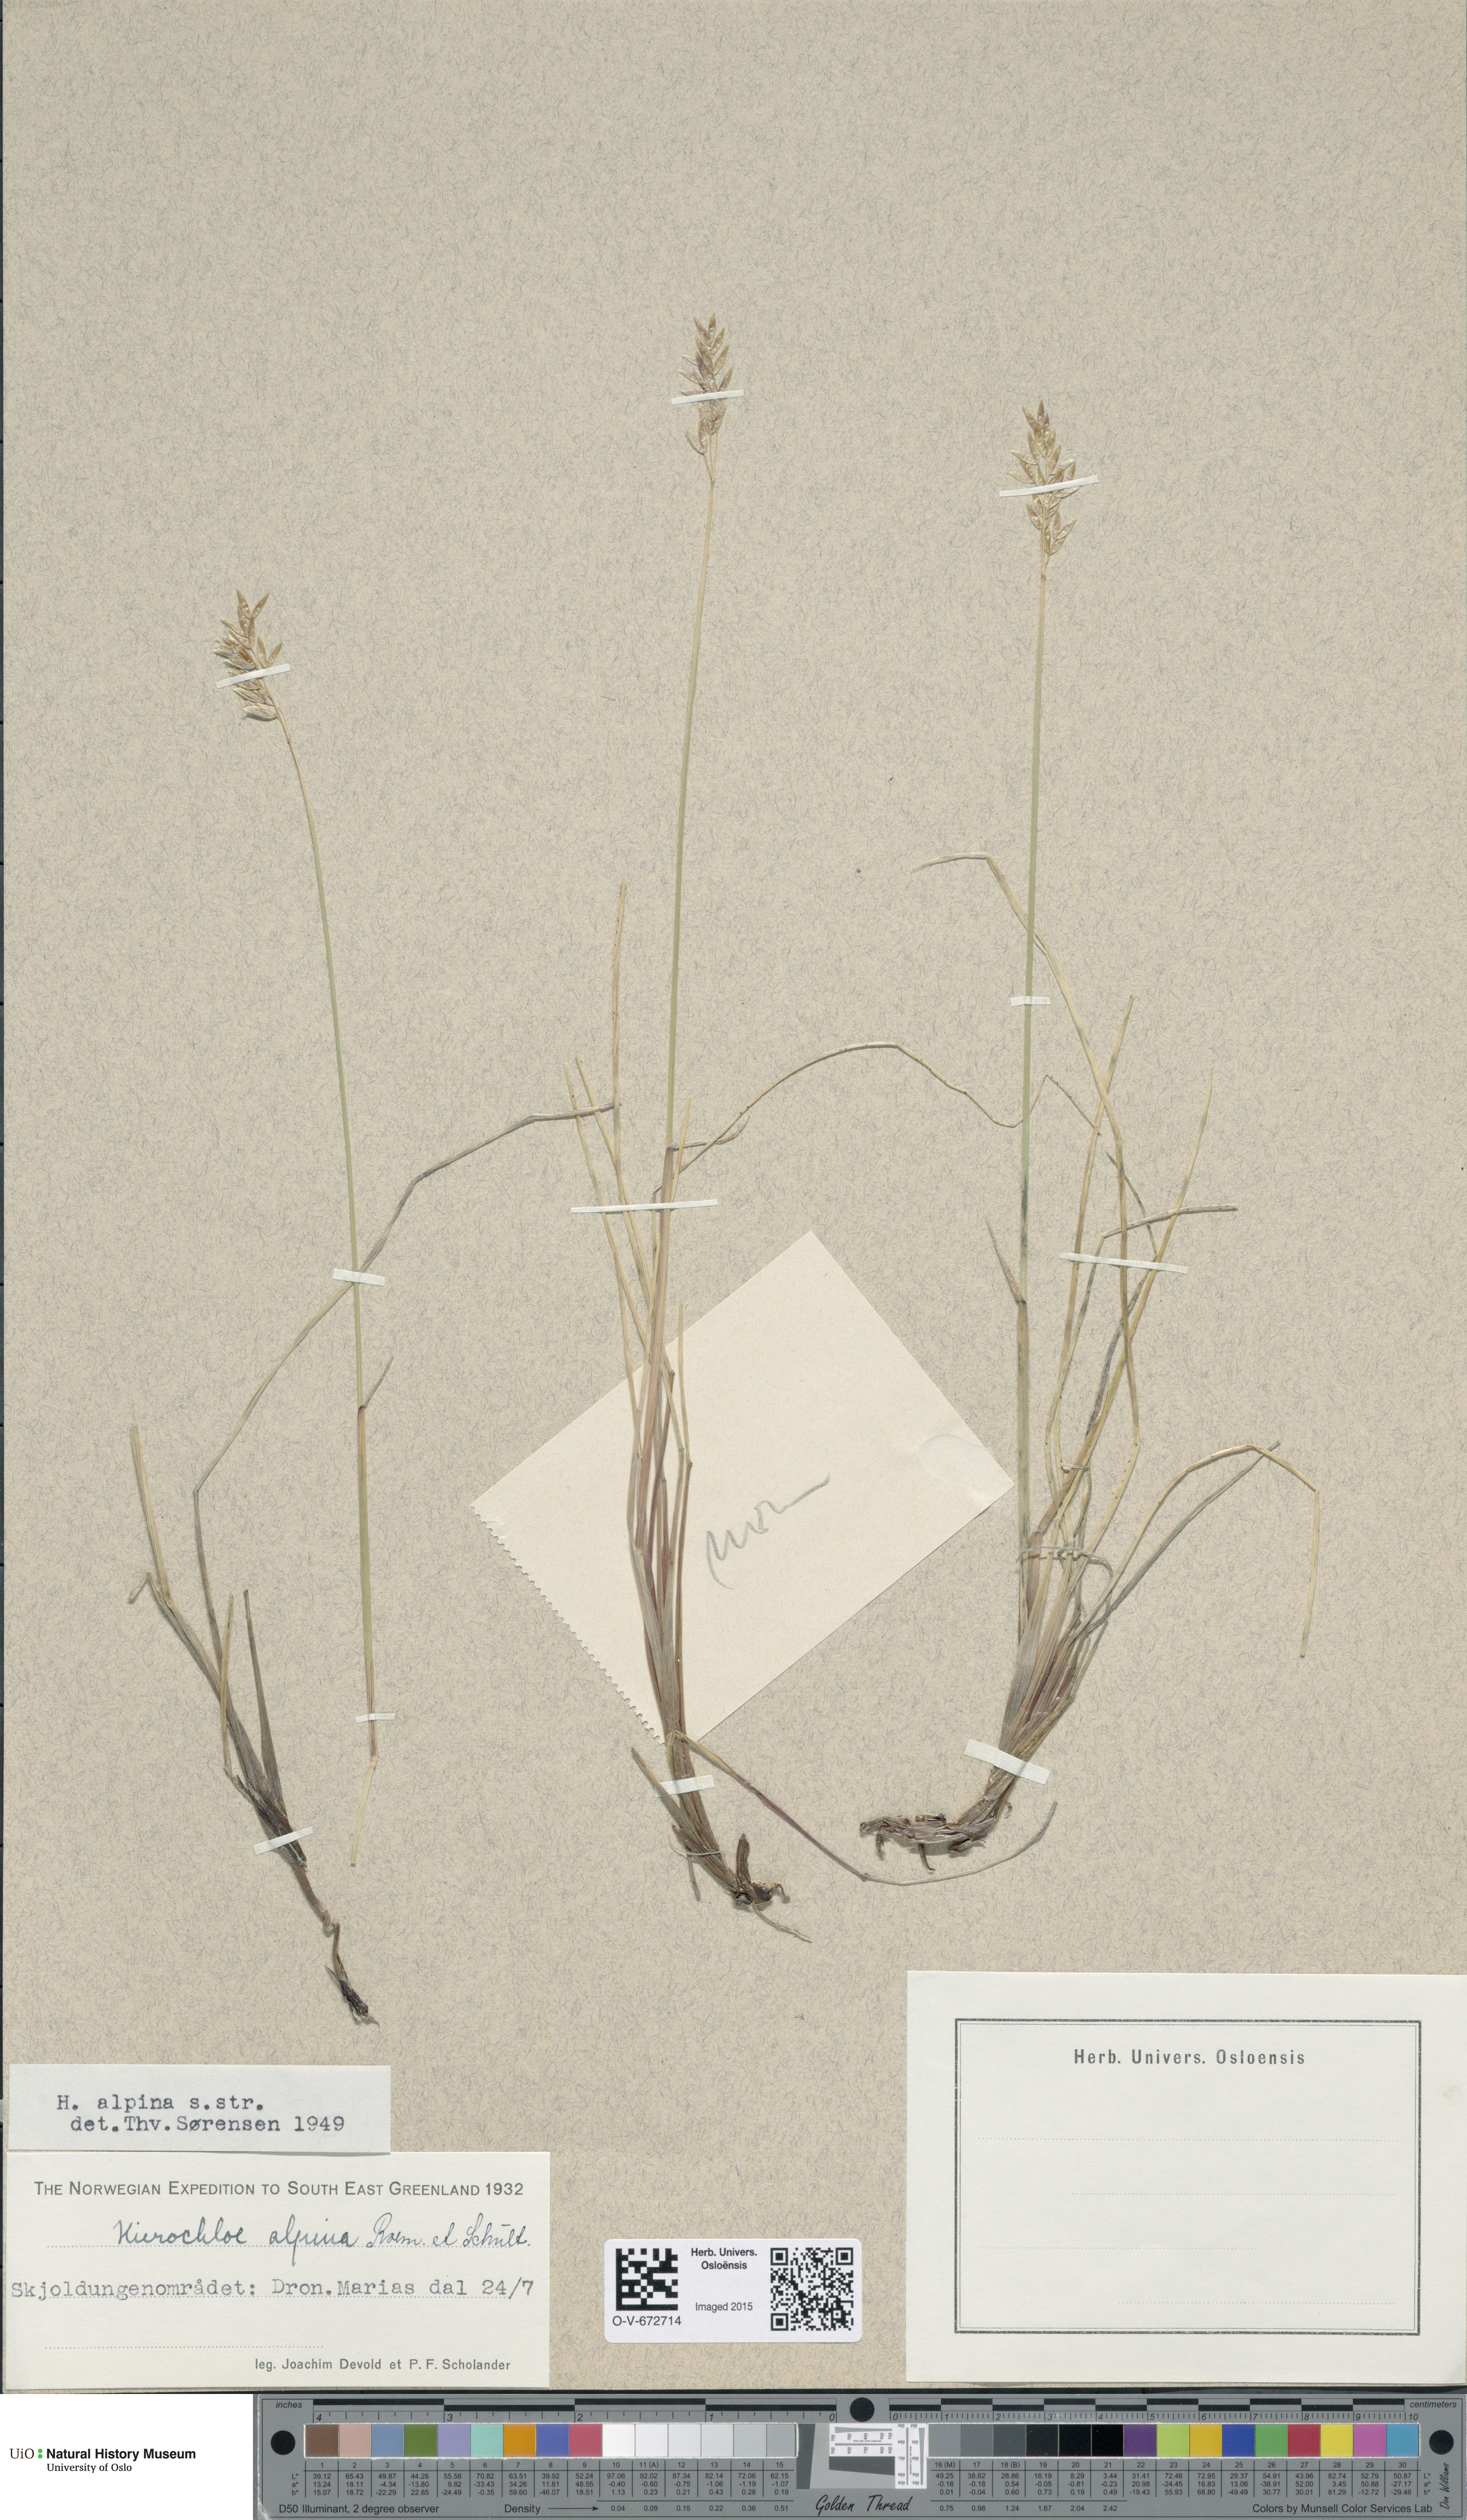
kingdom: Plantae
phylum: Tracheophyta
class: Liliopsida
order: Poales
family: Poaceae
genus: Anthoxanthum
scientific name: Anthoxanthum monticola
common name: Alpine sweetgrass
